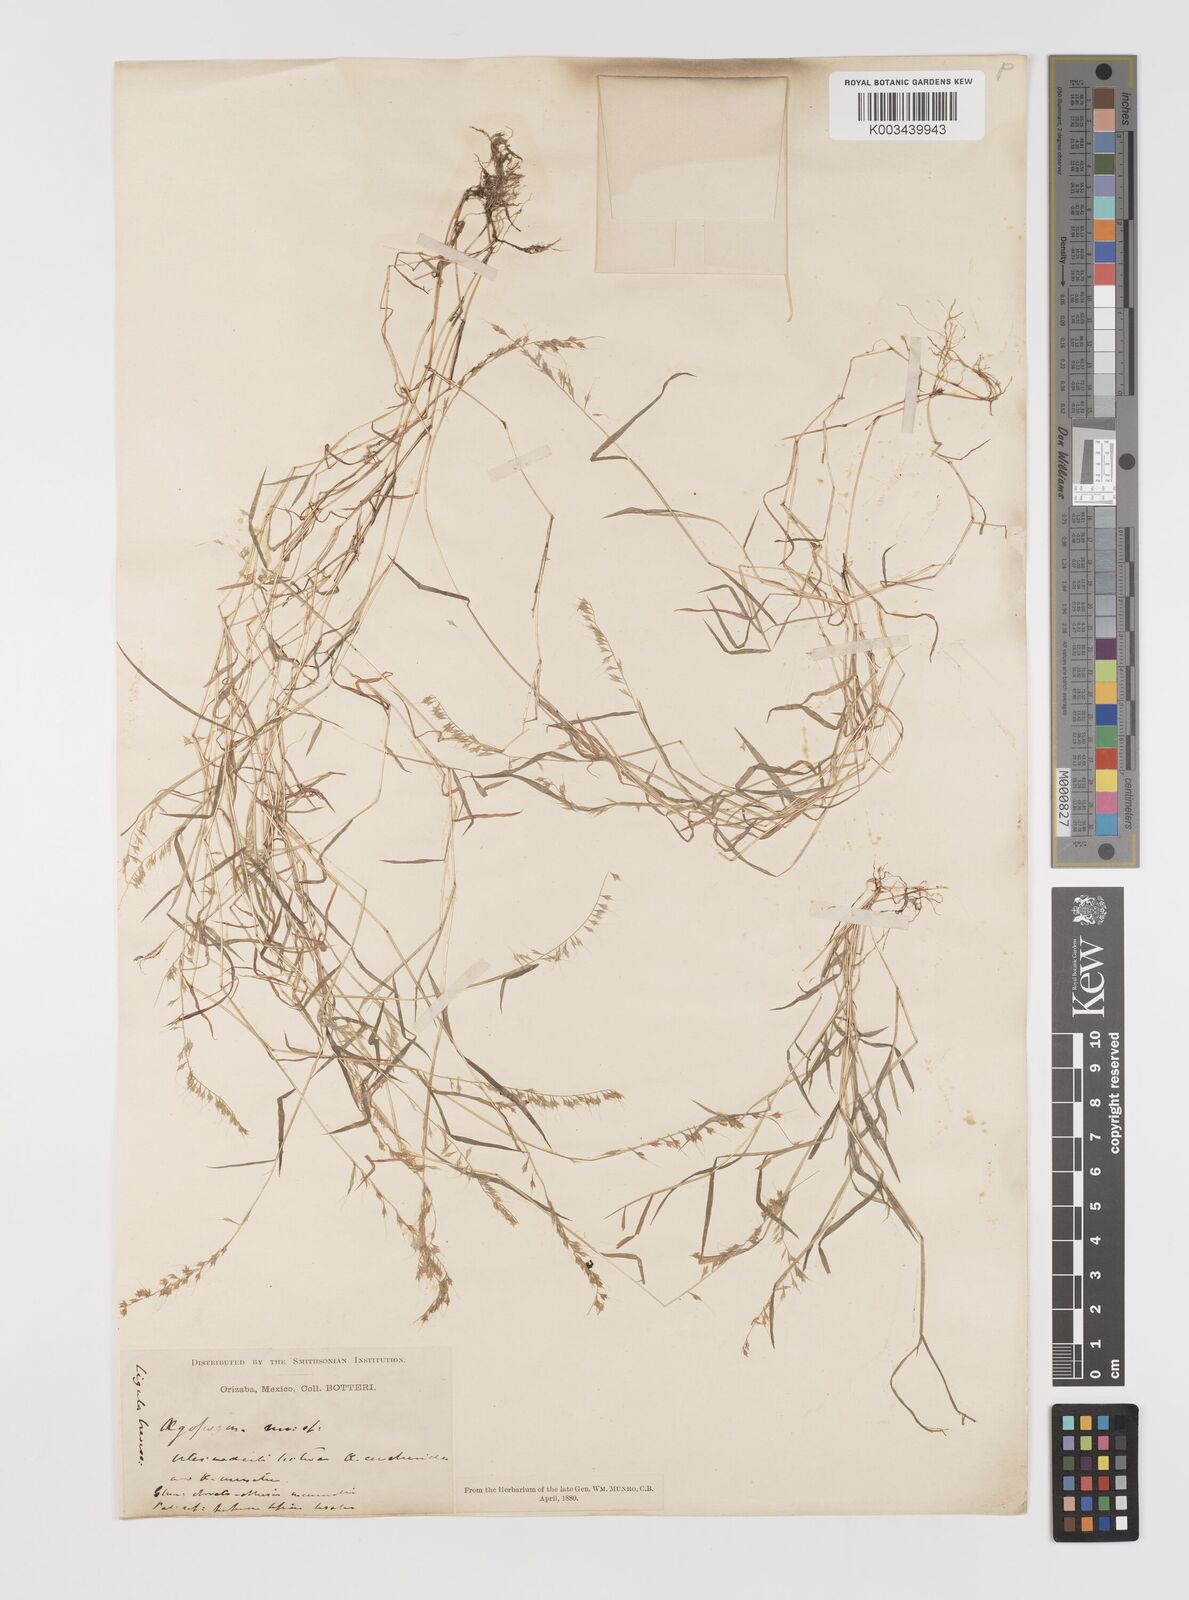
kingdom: Plantae
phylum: Tracheophyta
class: Liliopsida
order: Poales
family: Poaceae
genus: Muhlenbergia
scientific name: Muhlenbergia uniseta
